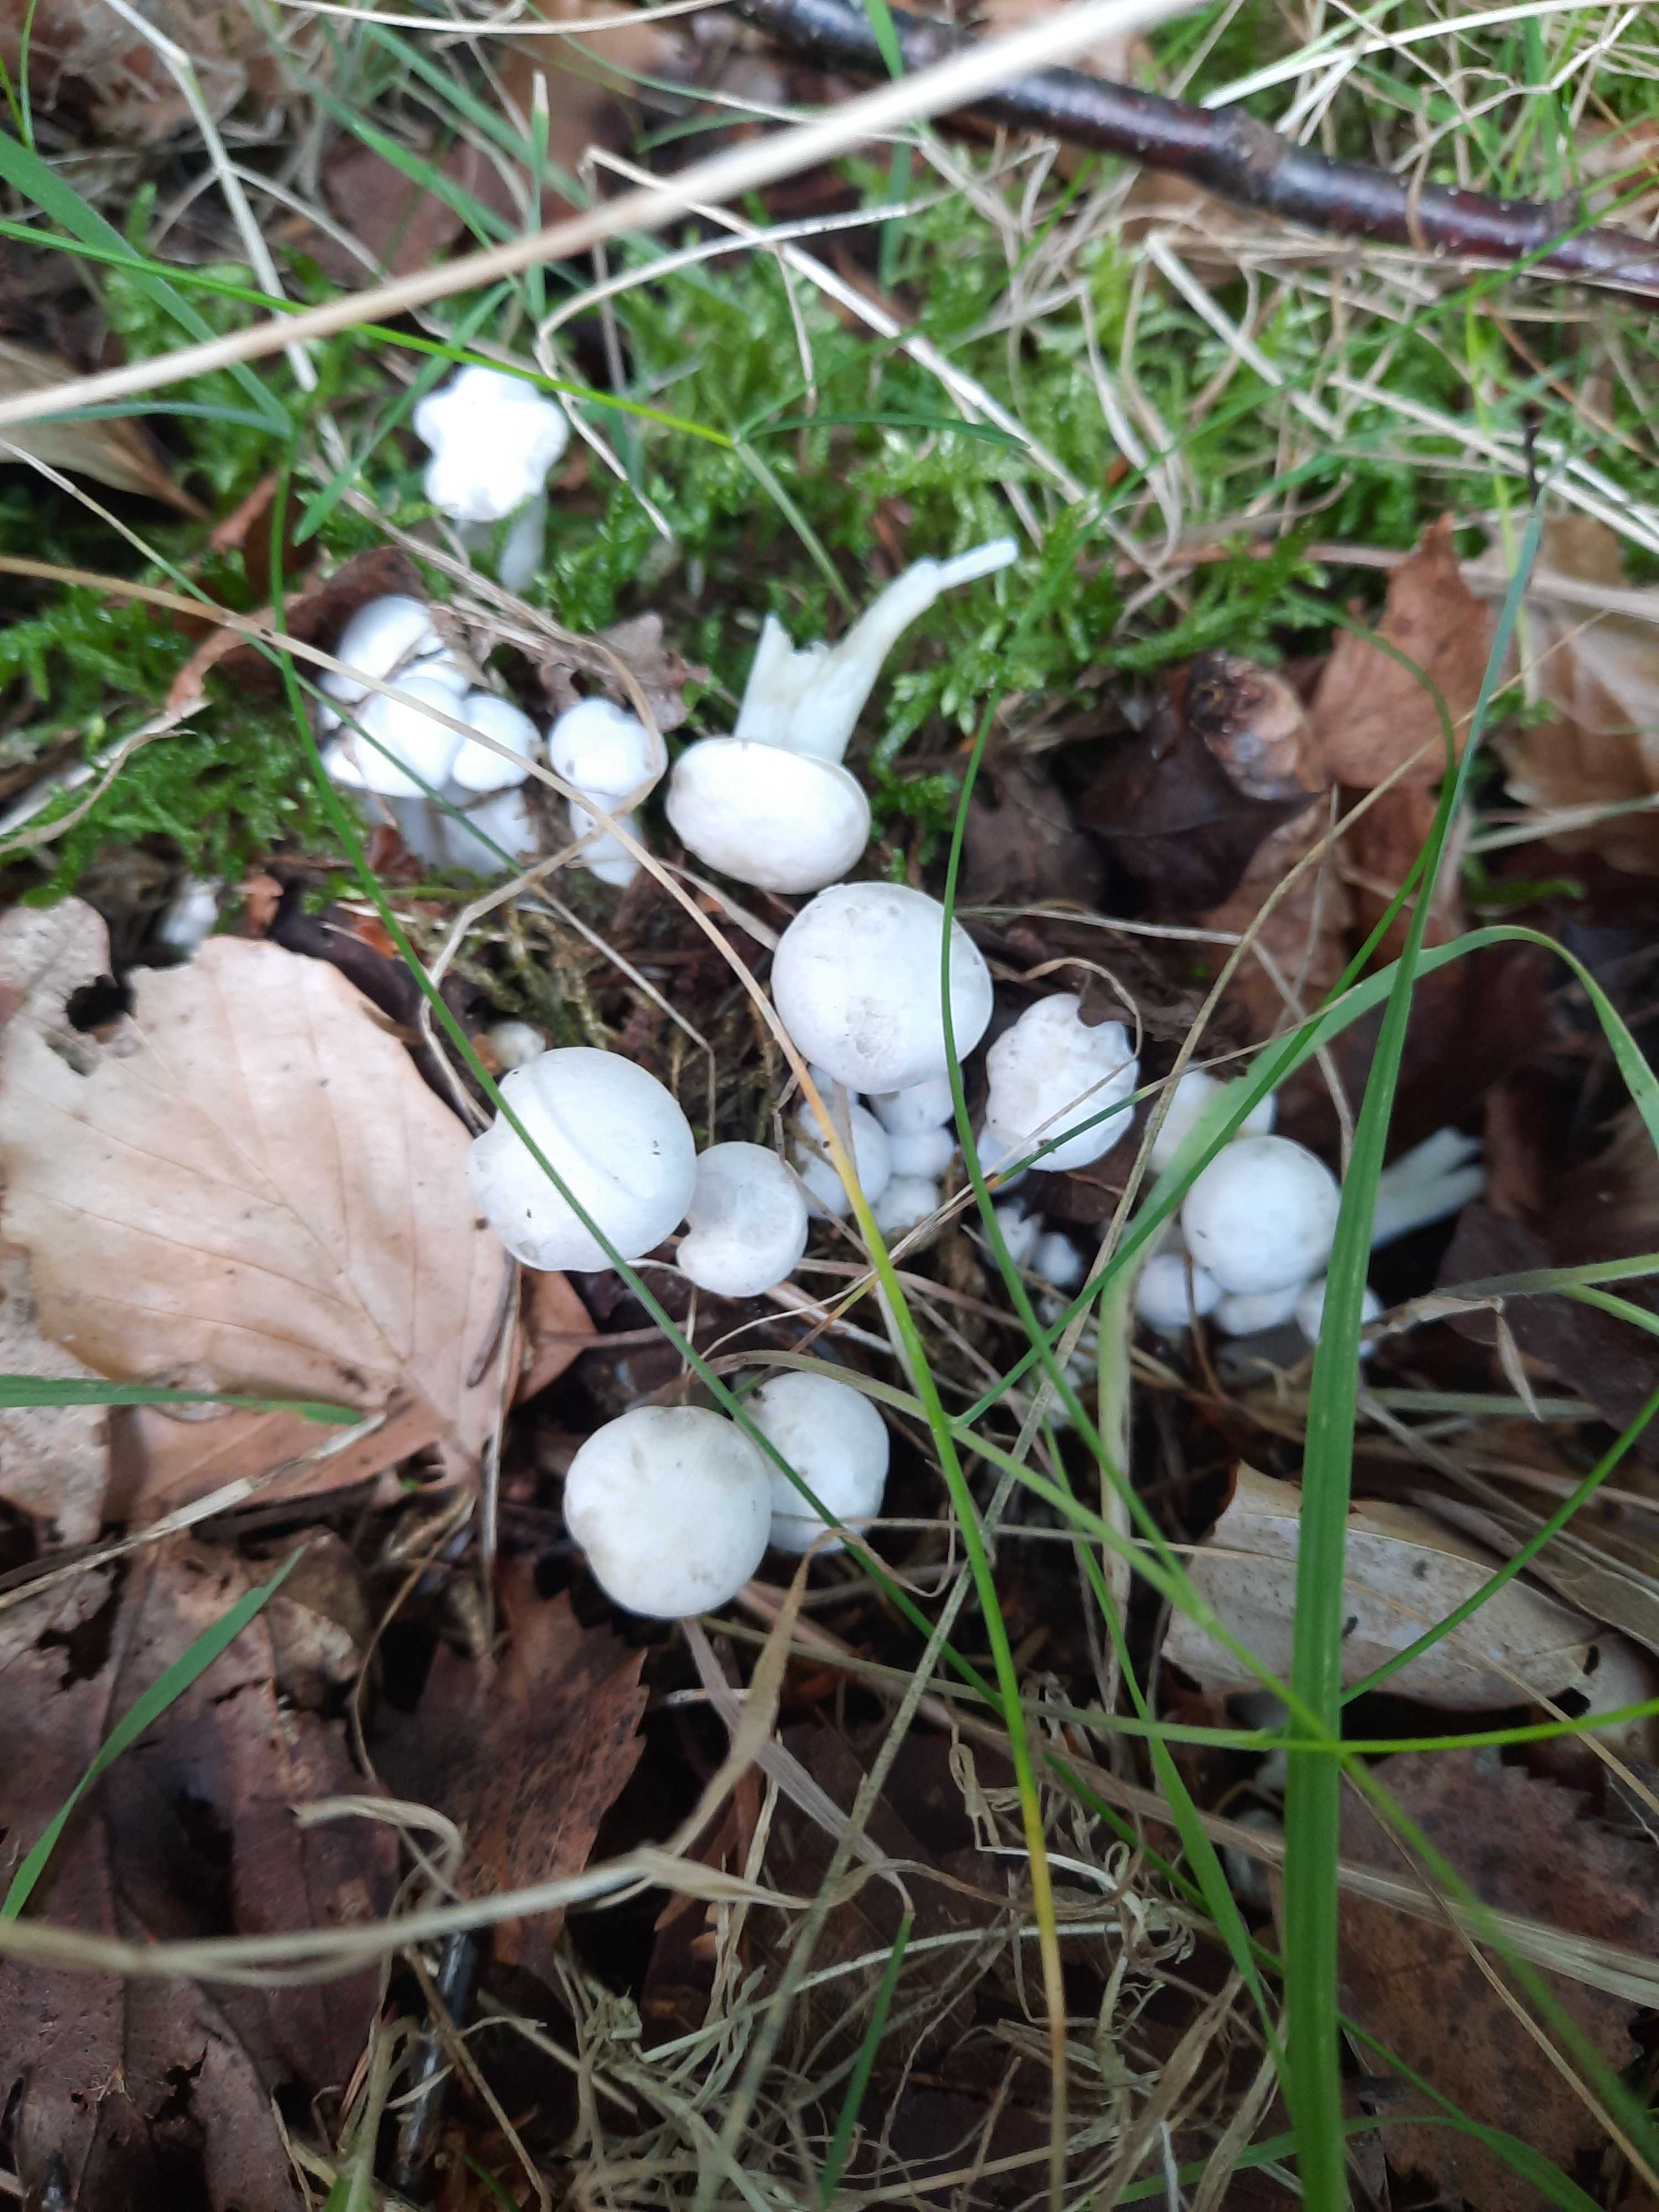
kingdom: Fungi
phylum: Basidiomycota
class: Agaricomycetes
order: Agaricales
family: Tricholomataceae
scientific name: Tricholomataceae
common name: ridderhatfamilien
